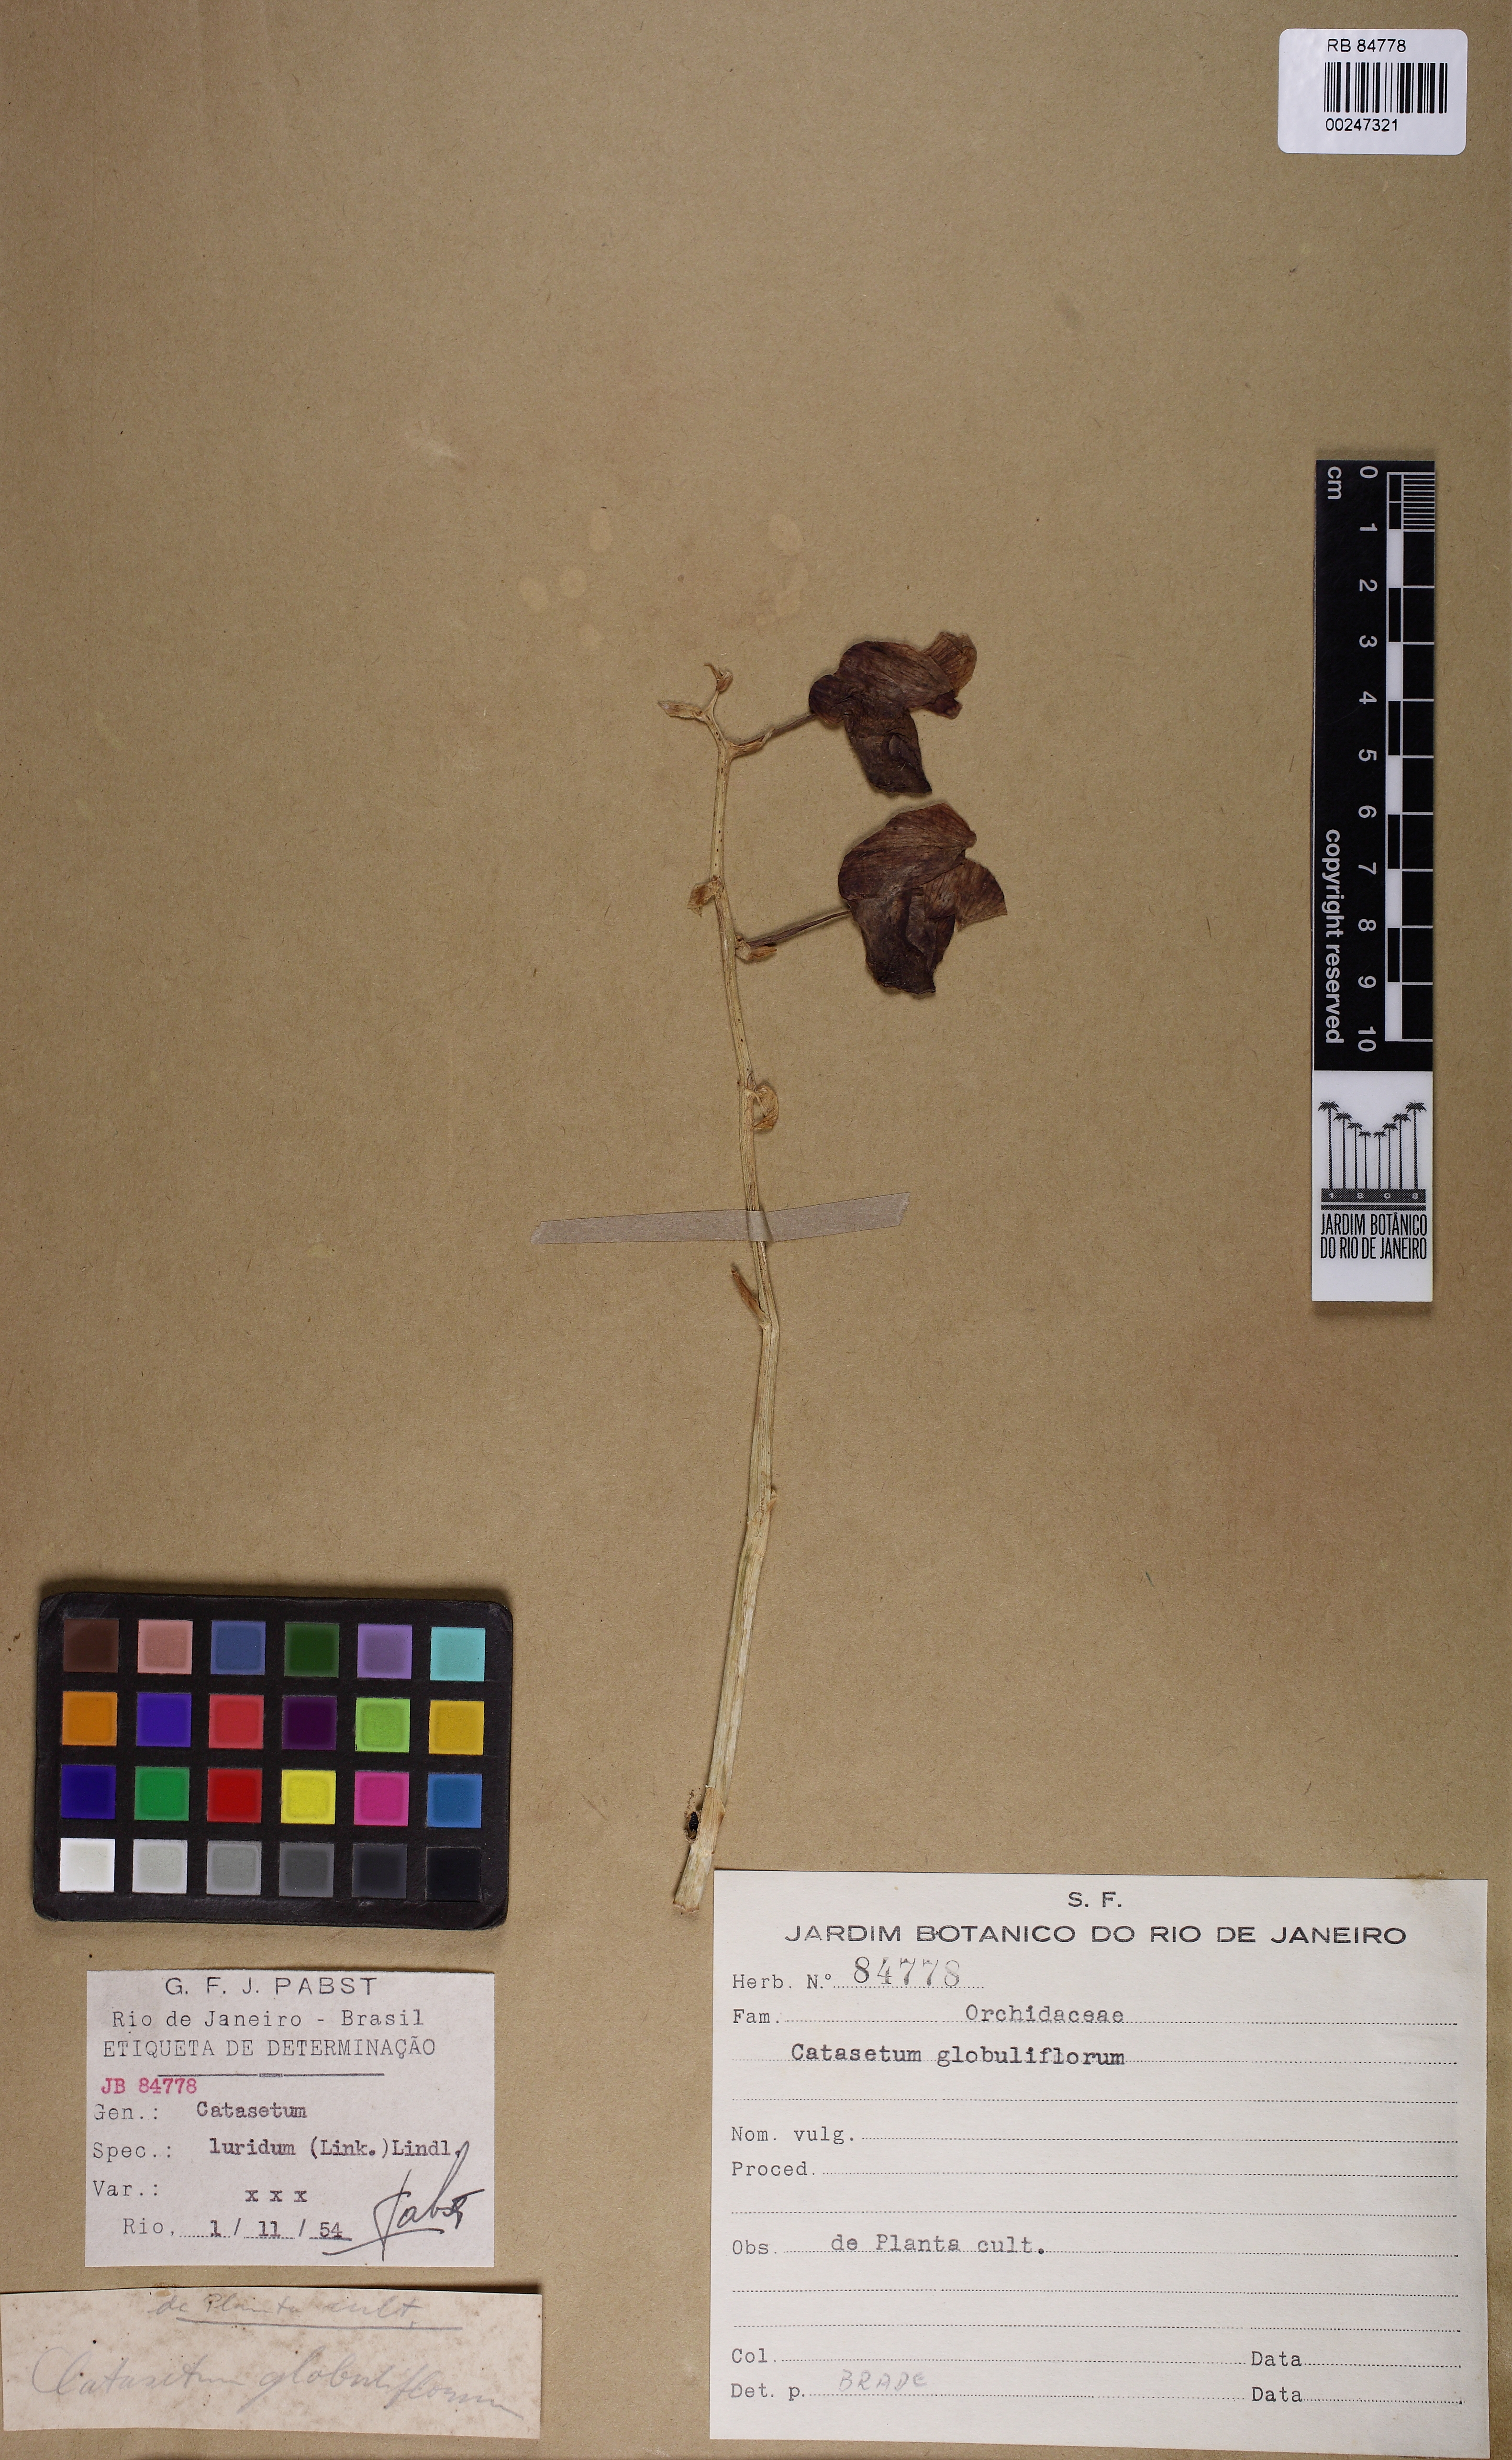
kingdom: Plantae
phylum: Tracheophyta
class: Liliopsida
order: Asparagales
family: Orchidaceae
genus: Catasetum
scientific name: Catasetum luridum
